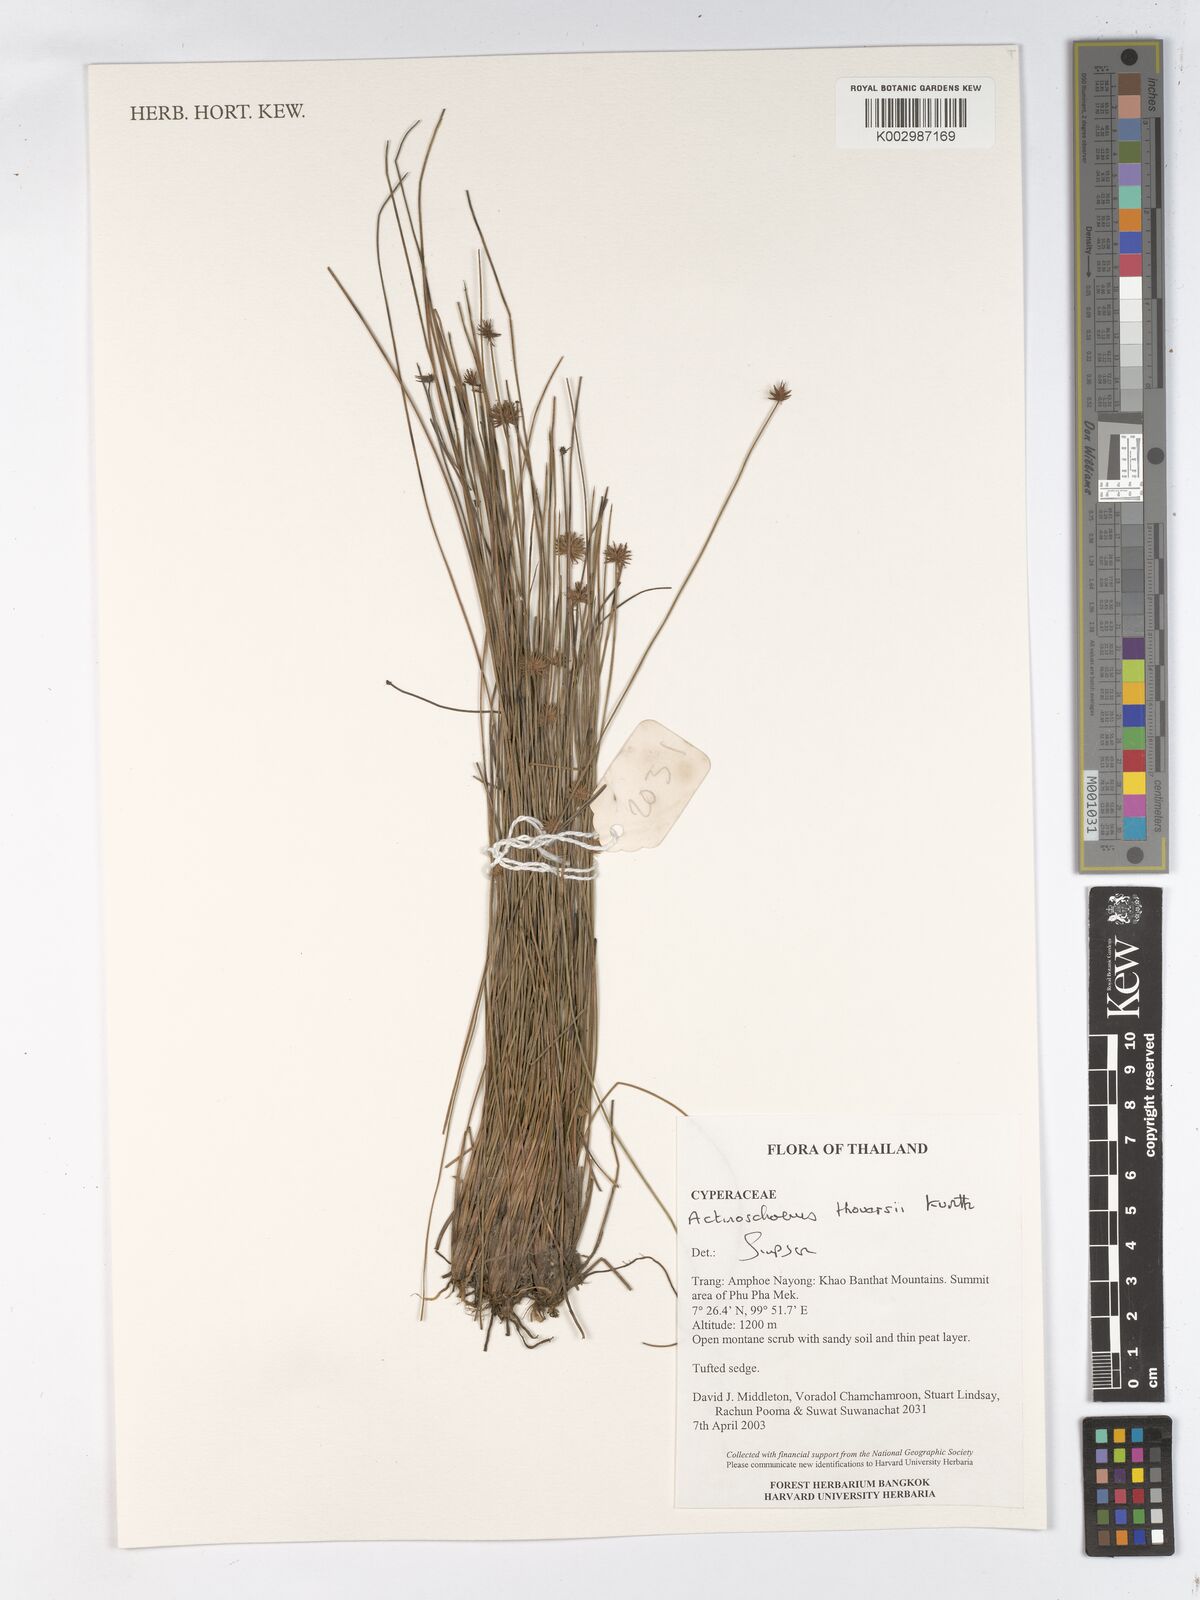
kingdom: Plantae
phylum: Tracheophyta
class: Liliopsida
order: Poales
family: Cyperaceae
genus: Actinoschoenus
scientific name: Actinoschoenus aphyllus
